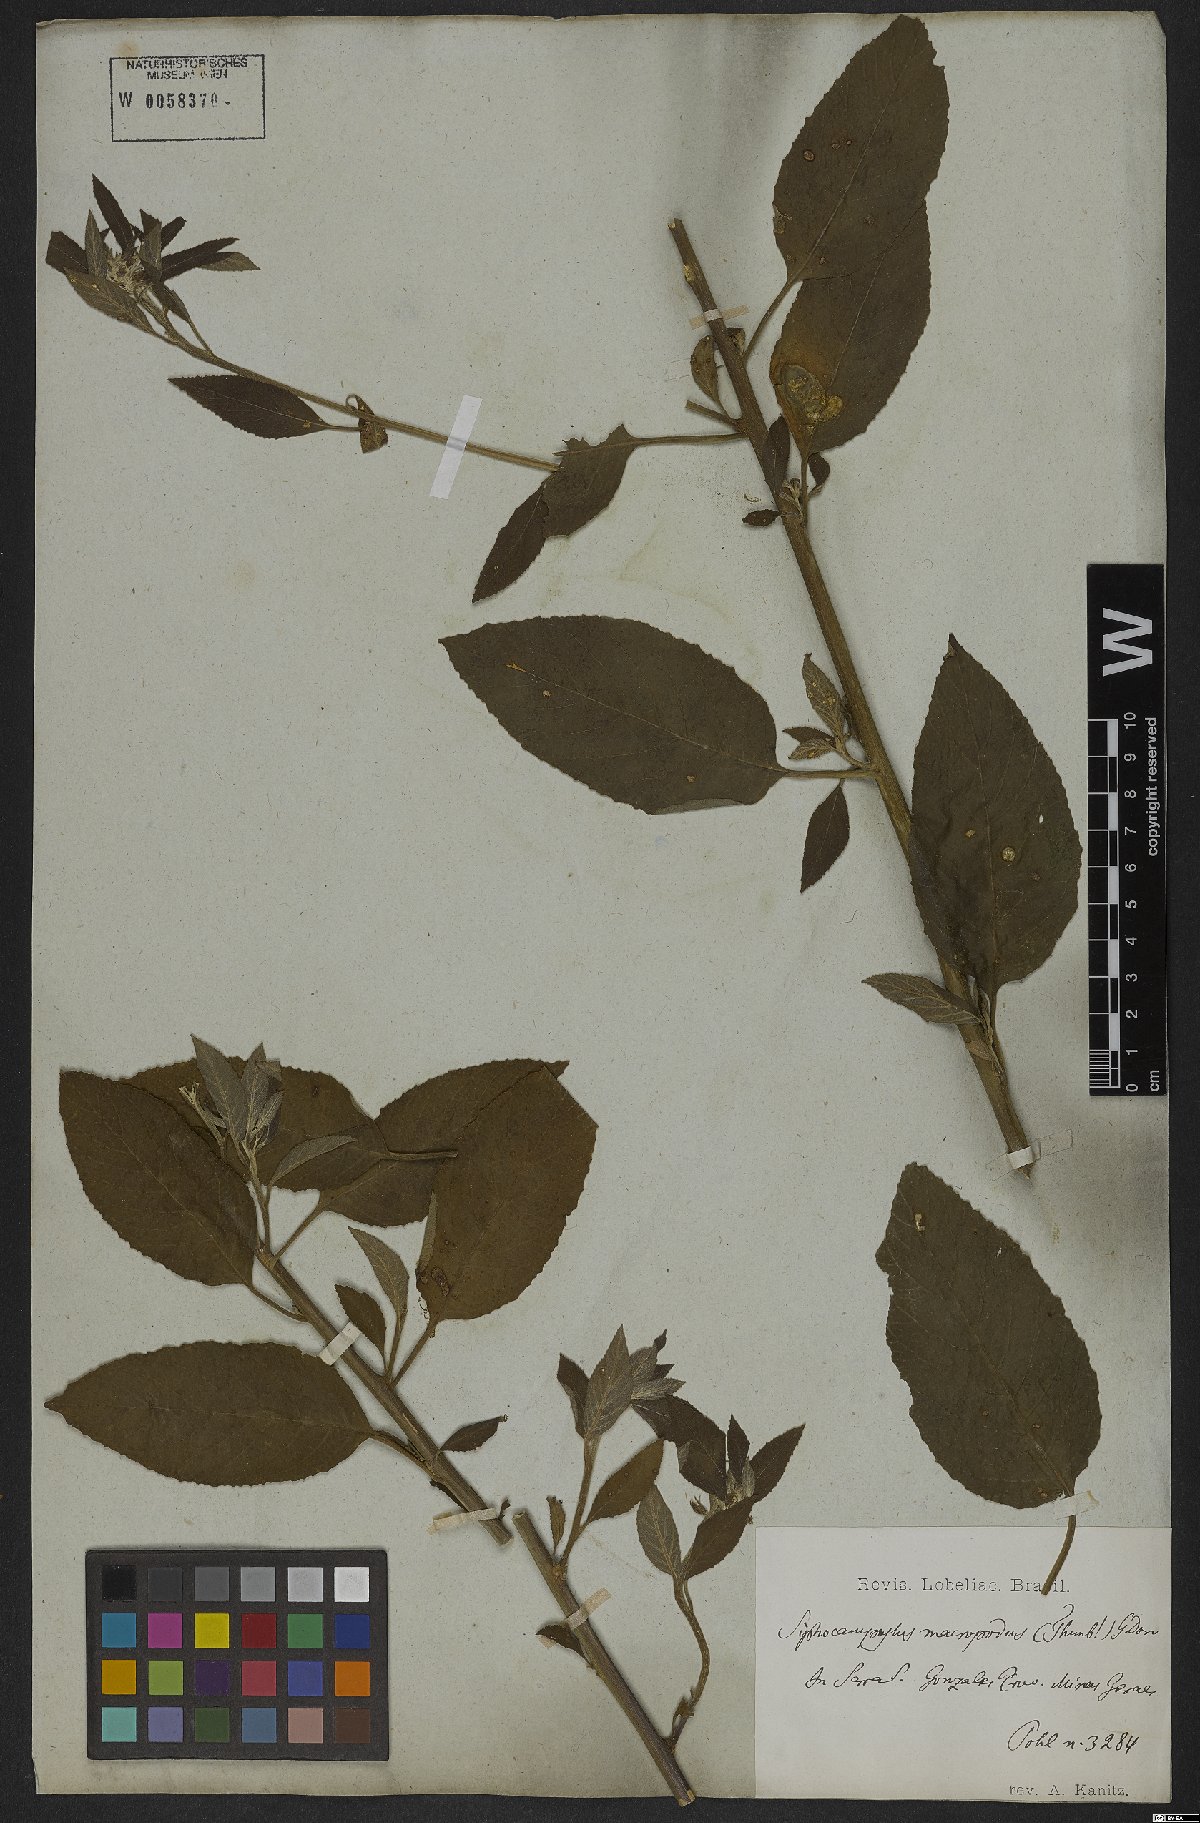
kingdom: Plantae
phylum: Tracheophyta
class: Magnoliopsida
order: Asterales
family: Campanulaceae
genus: Siphocampylus
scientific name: Siphocampylus macropodus
